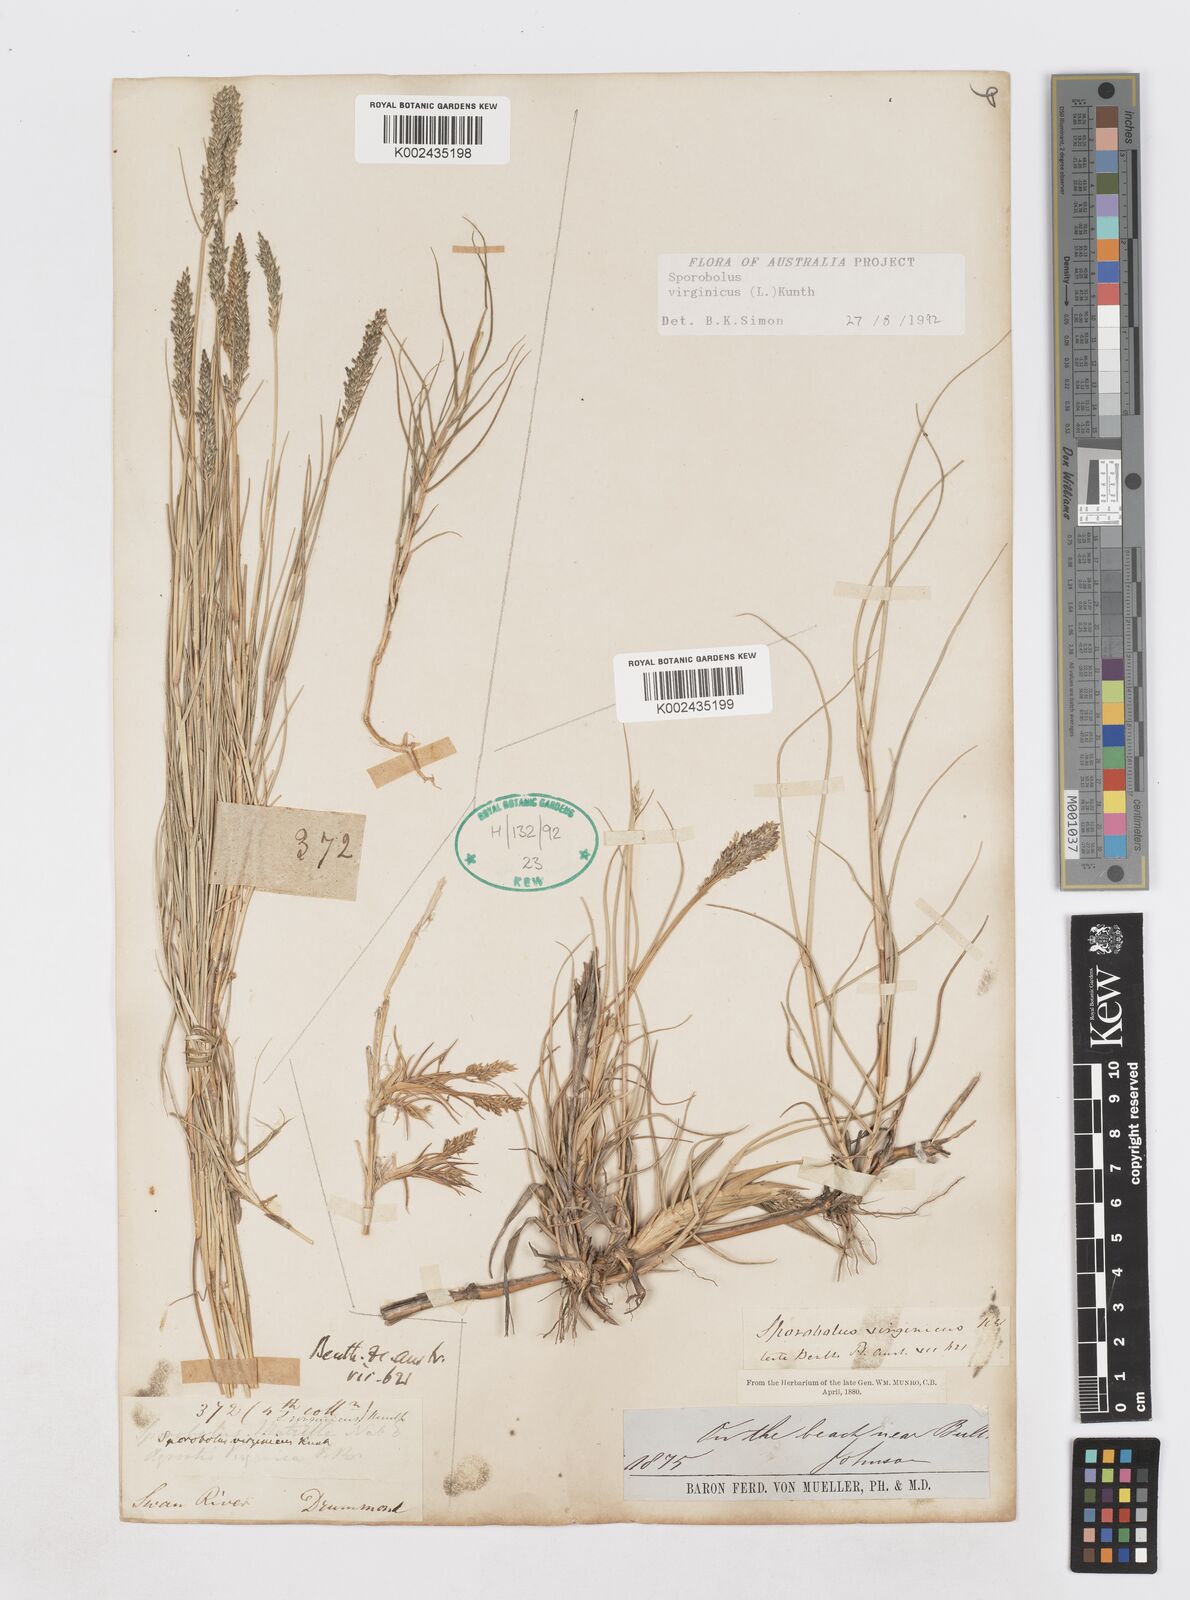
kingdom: Plantae
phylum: Tracheophyta
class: Liliopsida
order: Poales
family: Poaceae
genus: Sporobolus
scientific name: Sporobolus virginicus
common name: Beach dropseed
